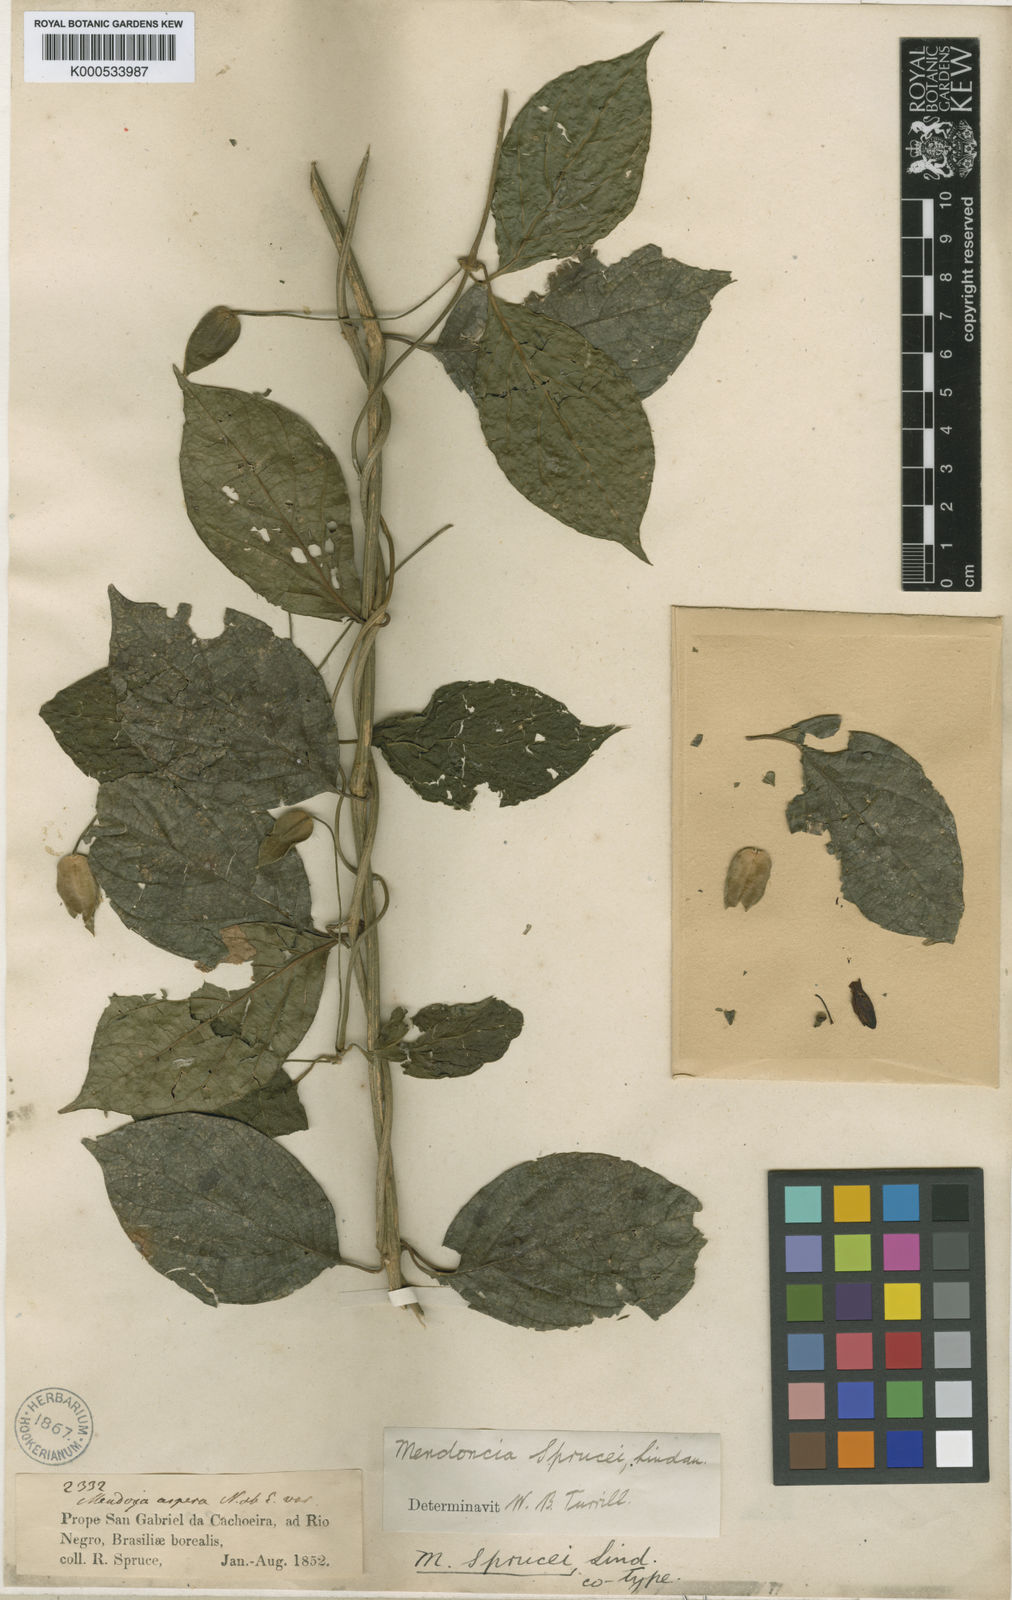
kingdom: Plantae
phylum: Tracheophyta
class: Magnoliopsida
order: Lamiales
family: Acanthaceae
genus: Mendoncia
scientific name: Mendoncia sprucei
